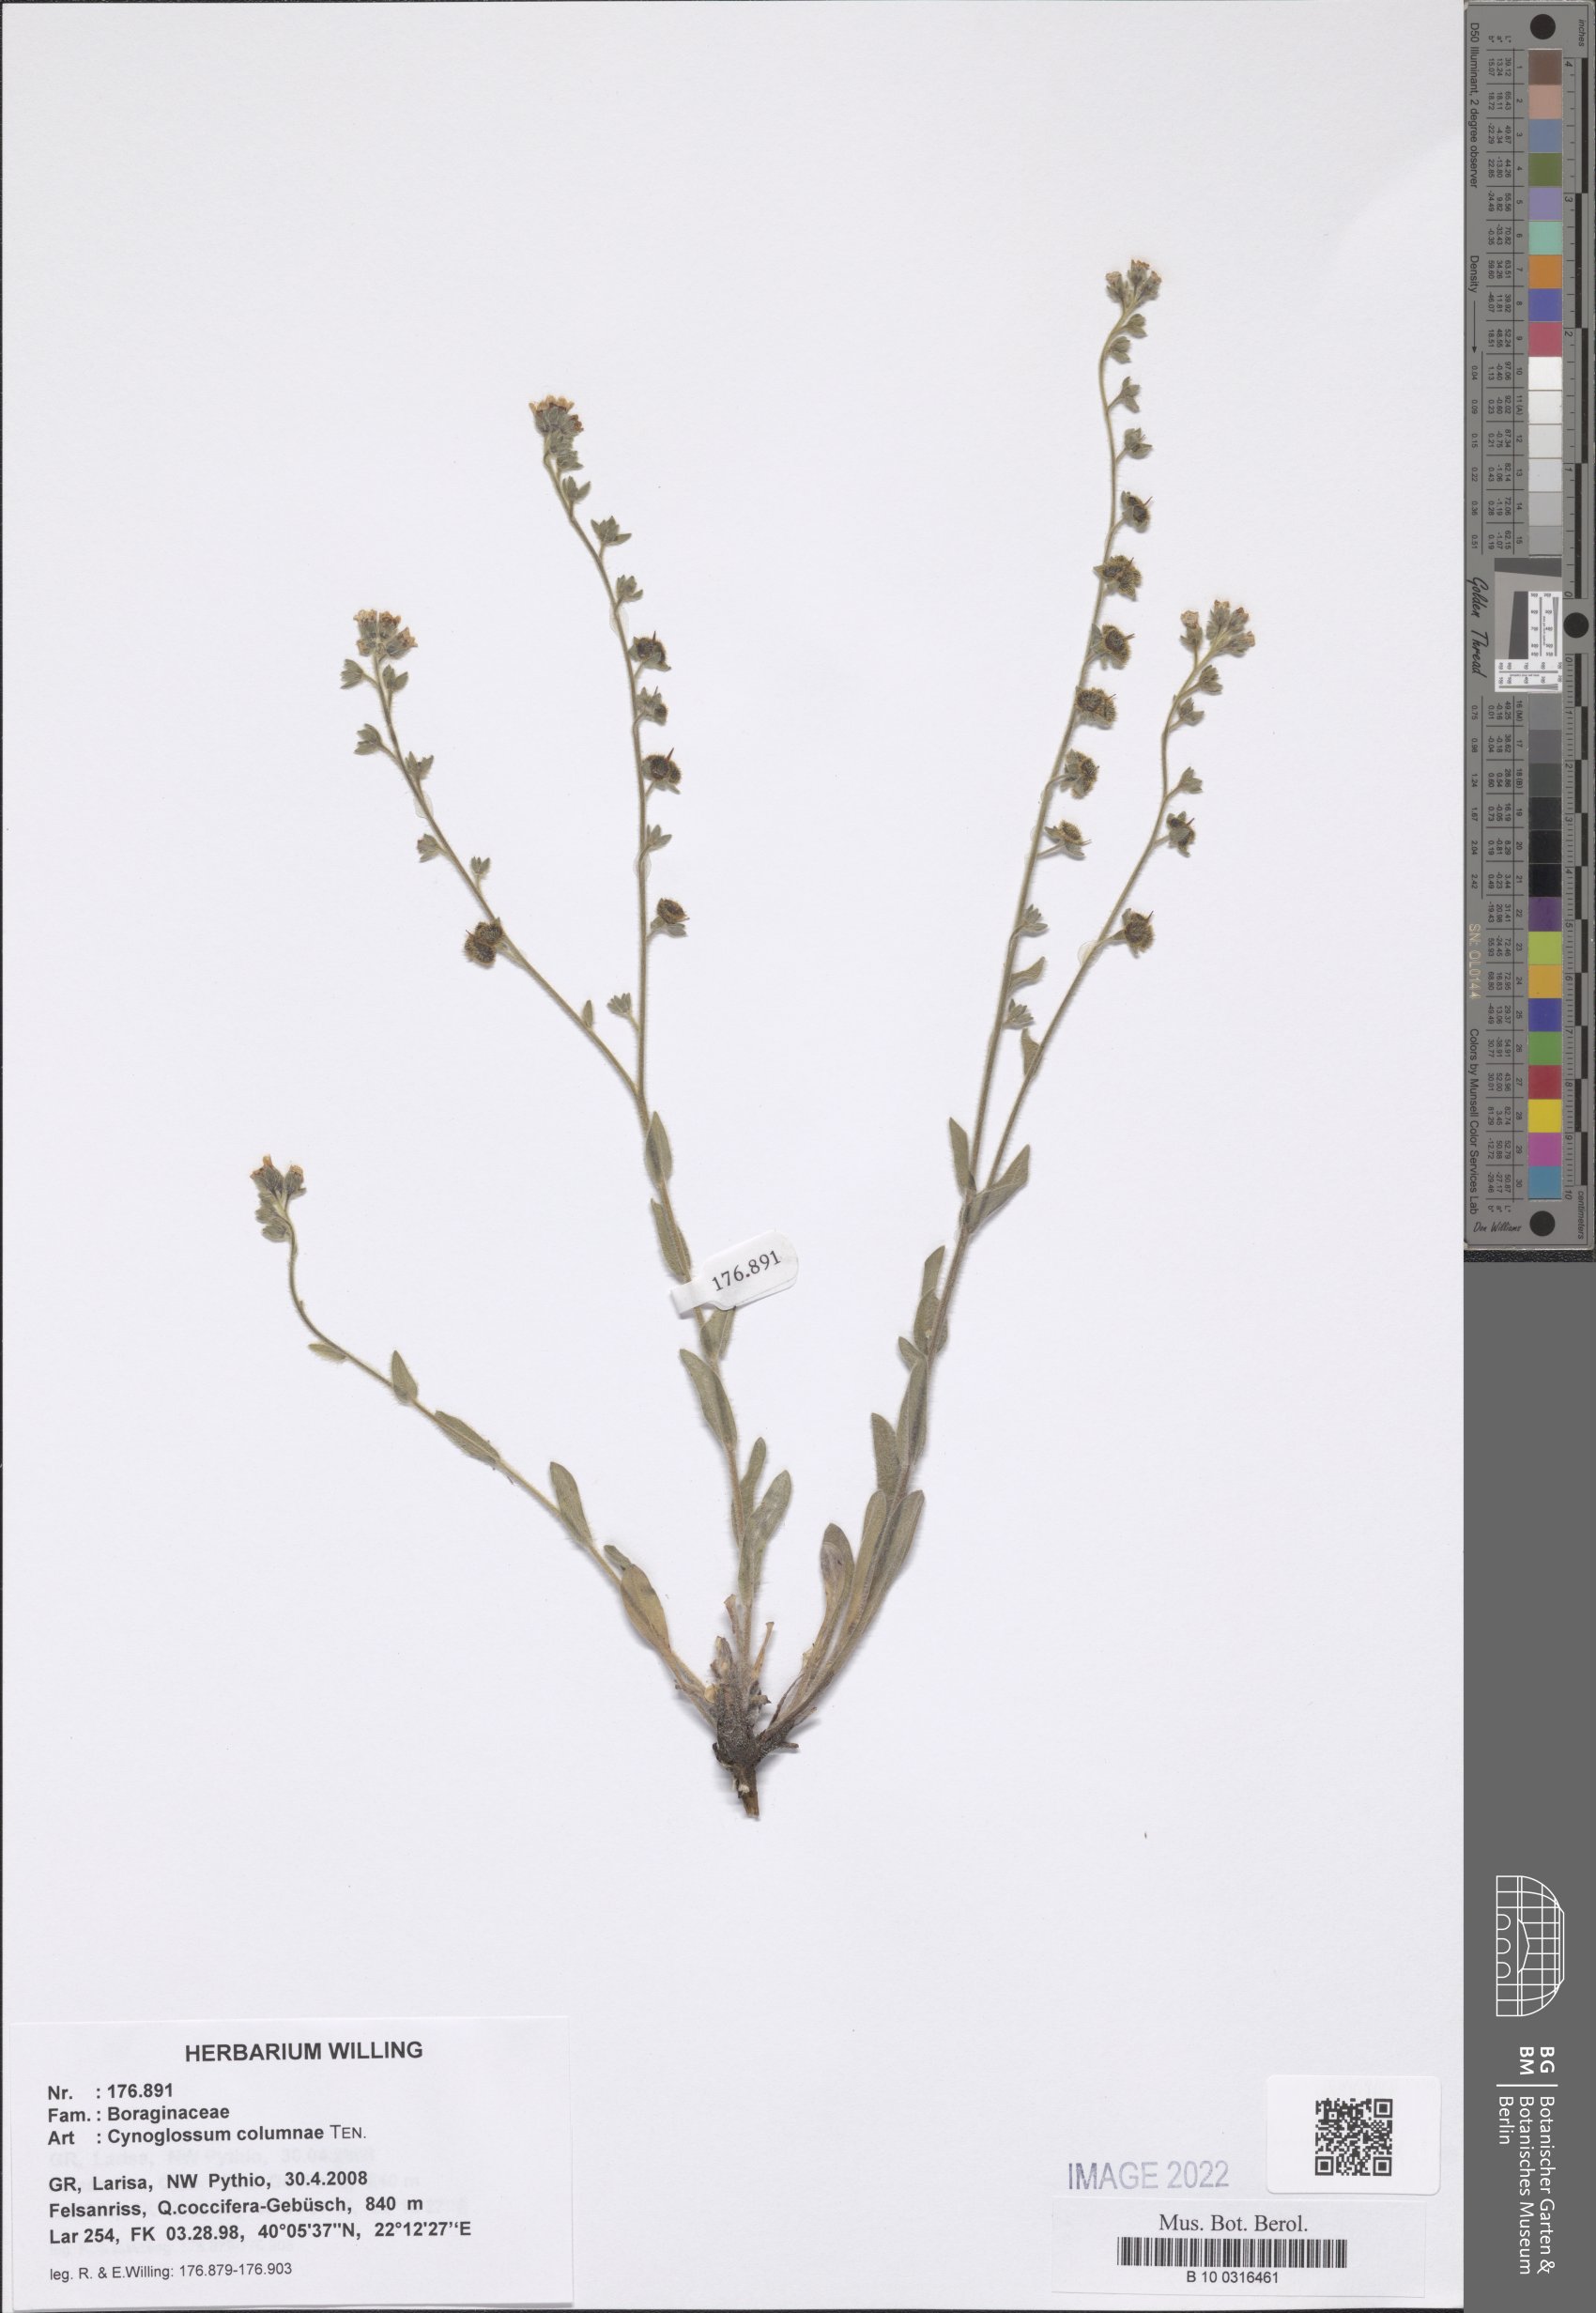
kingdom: Plantae
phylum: Tracheophyta
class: Magnoliopsida
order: Boraginales
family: Boraginaceae
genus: Rindera
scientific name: Rindera columnae
